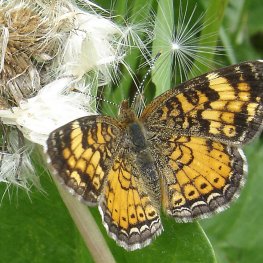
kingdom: Animalia
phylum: Arthropoda
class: Insecta
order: Lepidoptera
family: Nymphalidae
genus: Phyciodes
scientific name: Phyciodes tharos
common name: Northern Crescent
